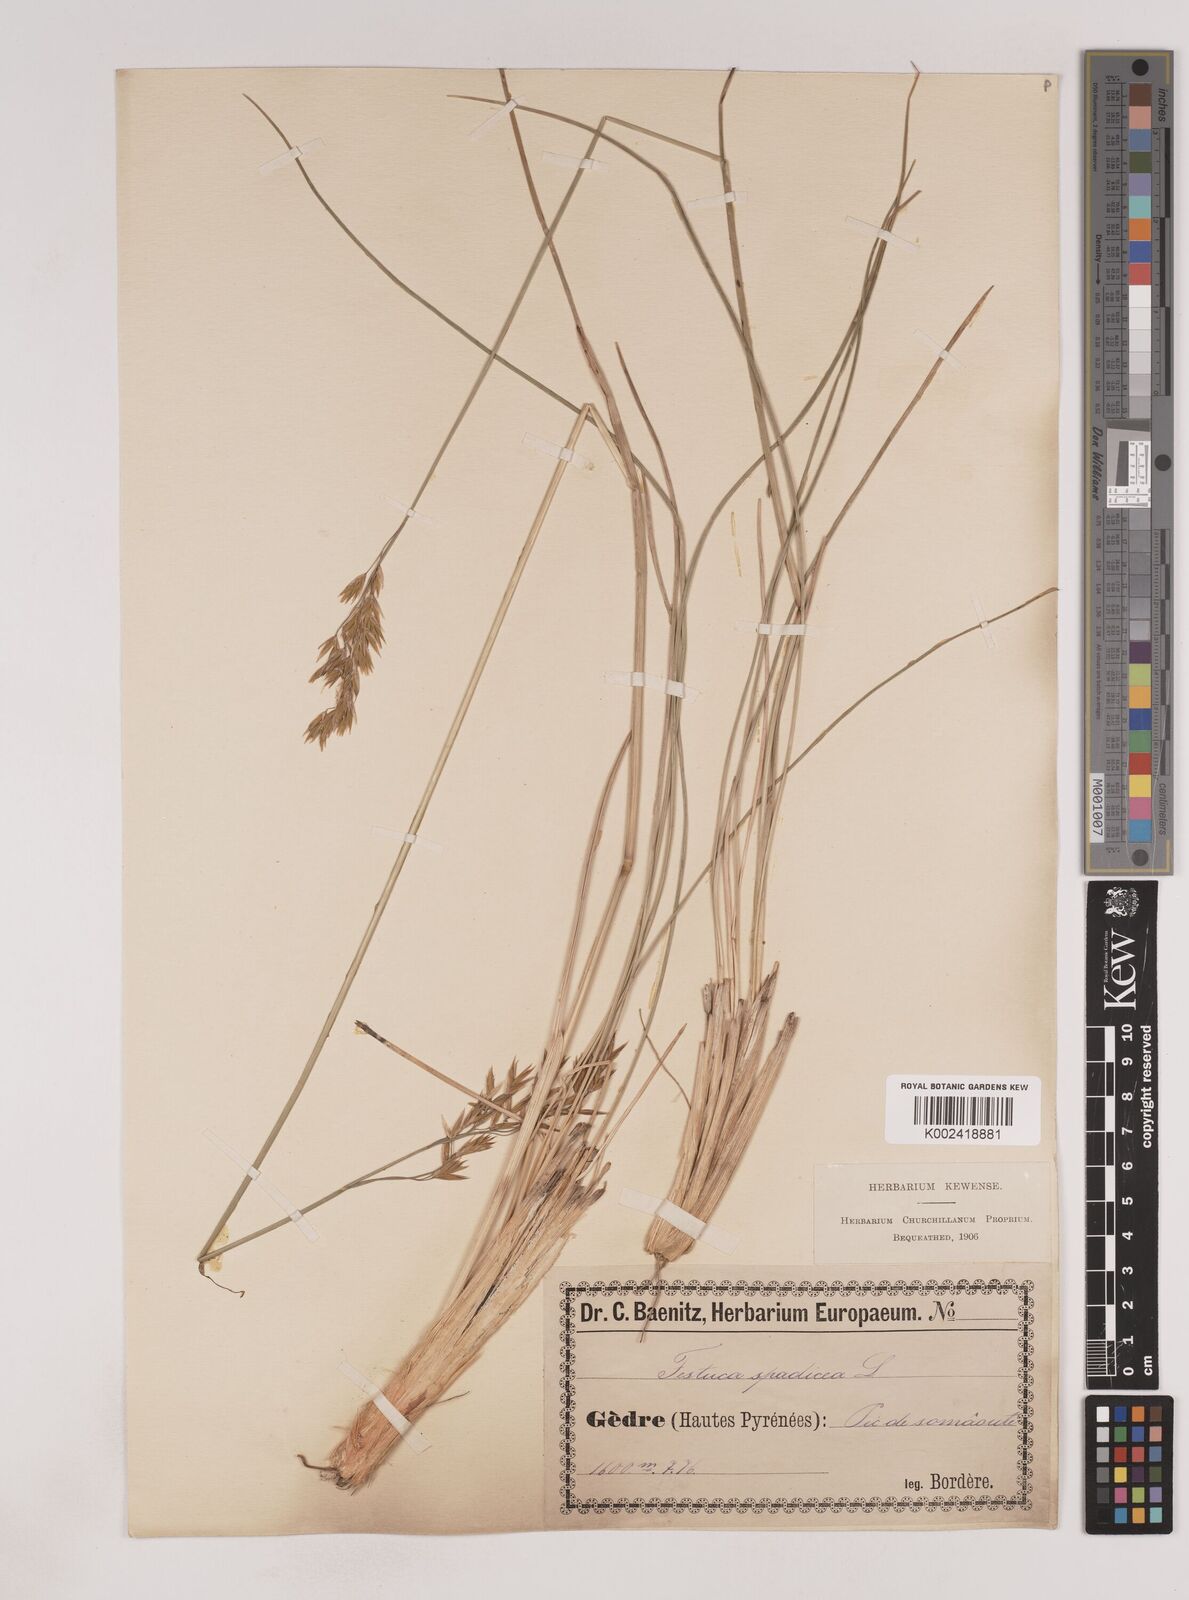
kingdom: Plantae
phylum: Tracheophyta
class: Liliopsida
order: Poales
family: Poaceae
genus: Patzkea
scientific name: Patzkea paniculata
